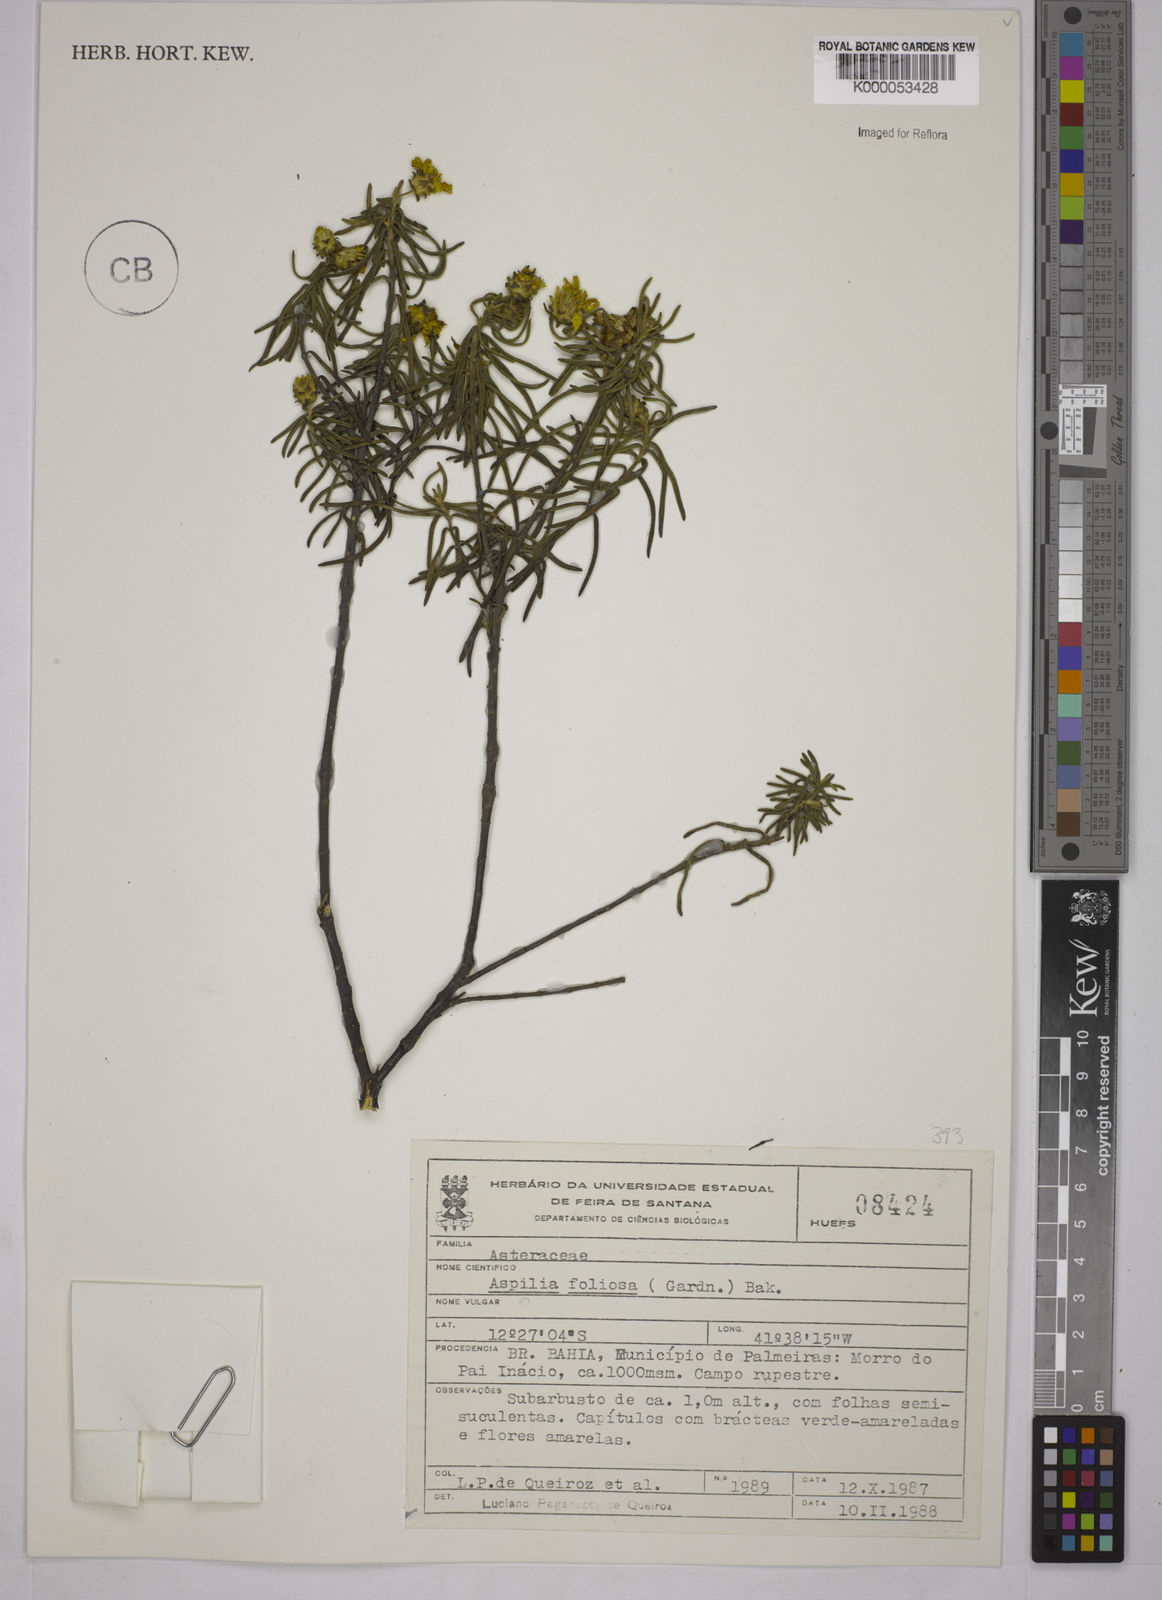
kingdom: Plantae
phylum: Tracheophyta
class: Magnoliopsida
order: Asterales
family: Asteraceae
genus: Aspilia
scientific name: Aspilia
